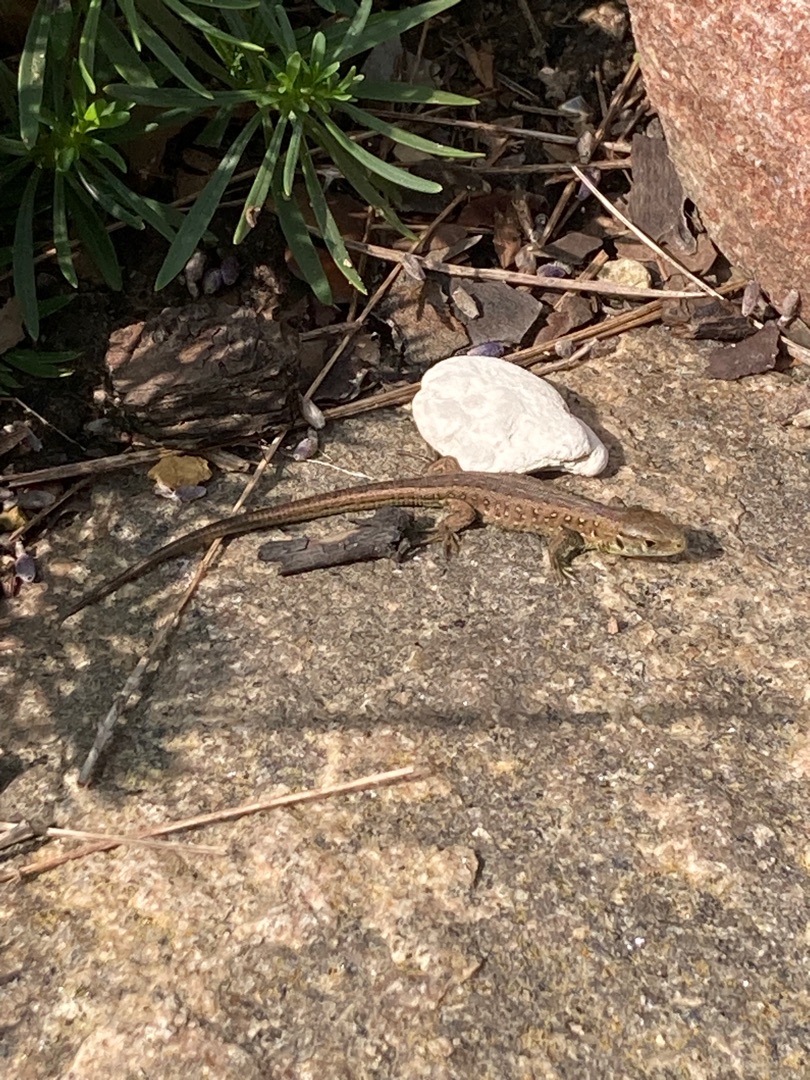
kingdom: Animalia
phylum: Chordata
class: Squamata
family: Lacertidae
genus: Lacerta
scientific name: Lacerta agilis
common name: Markfirben
